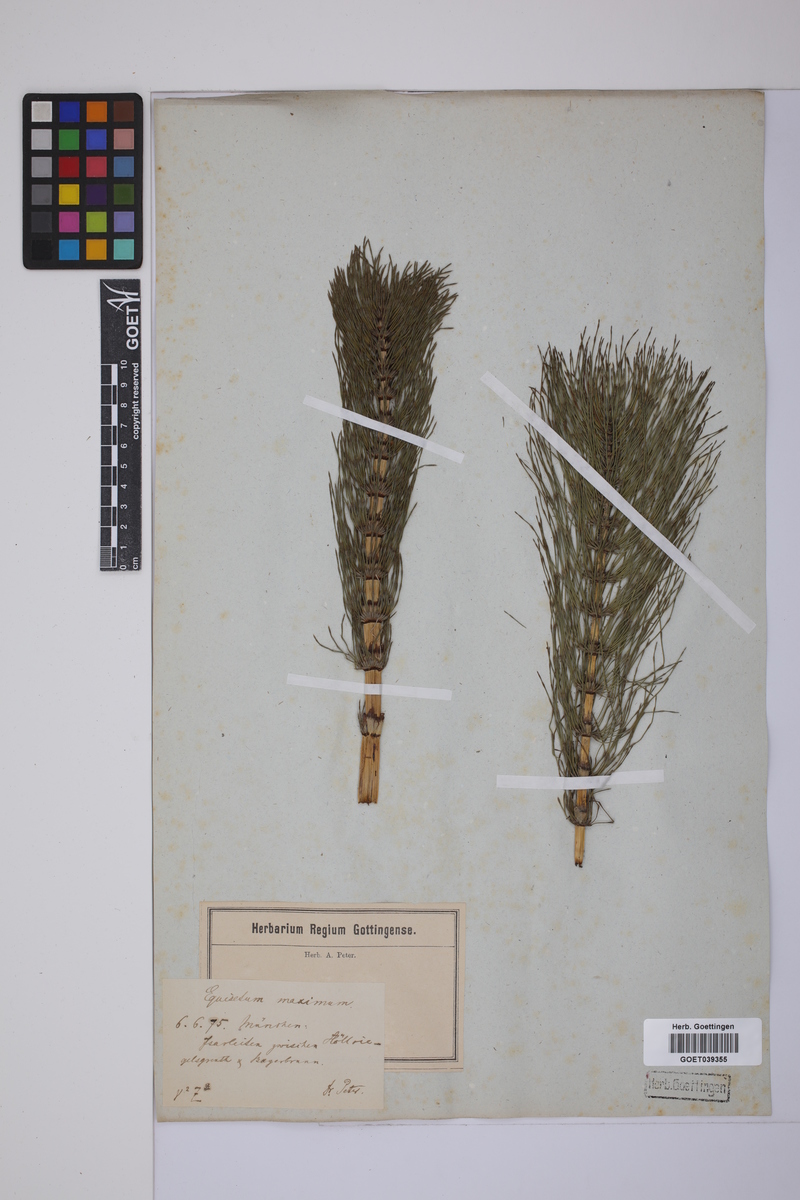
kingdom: Plantae
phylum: Tracheophyta
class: Polypodiopsida
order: Equisetales
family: Equisetaceae
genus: Equisetum
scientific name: Equisetum telmateia
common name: Great horsetail
